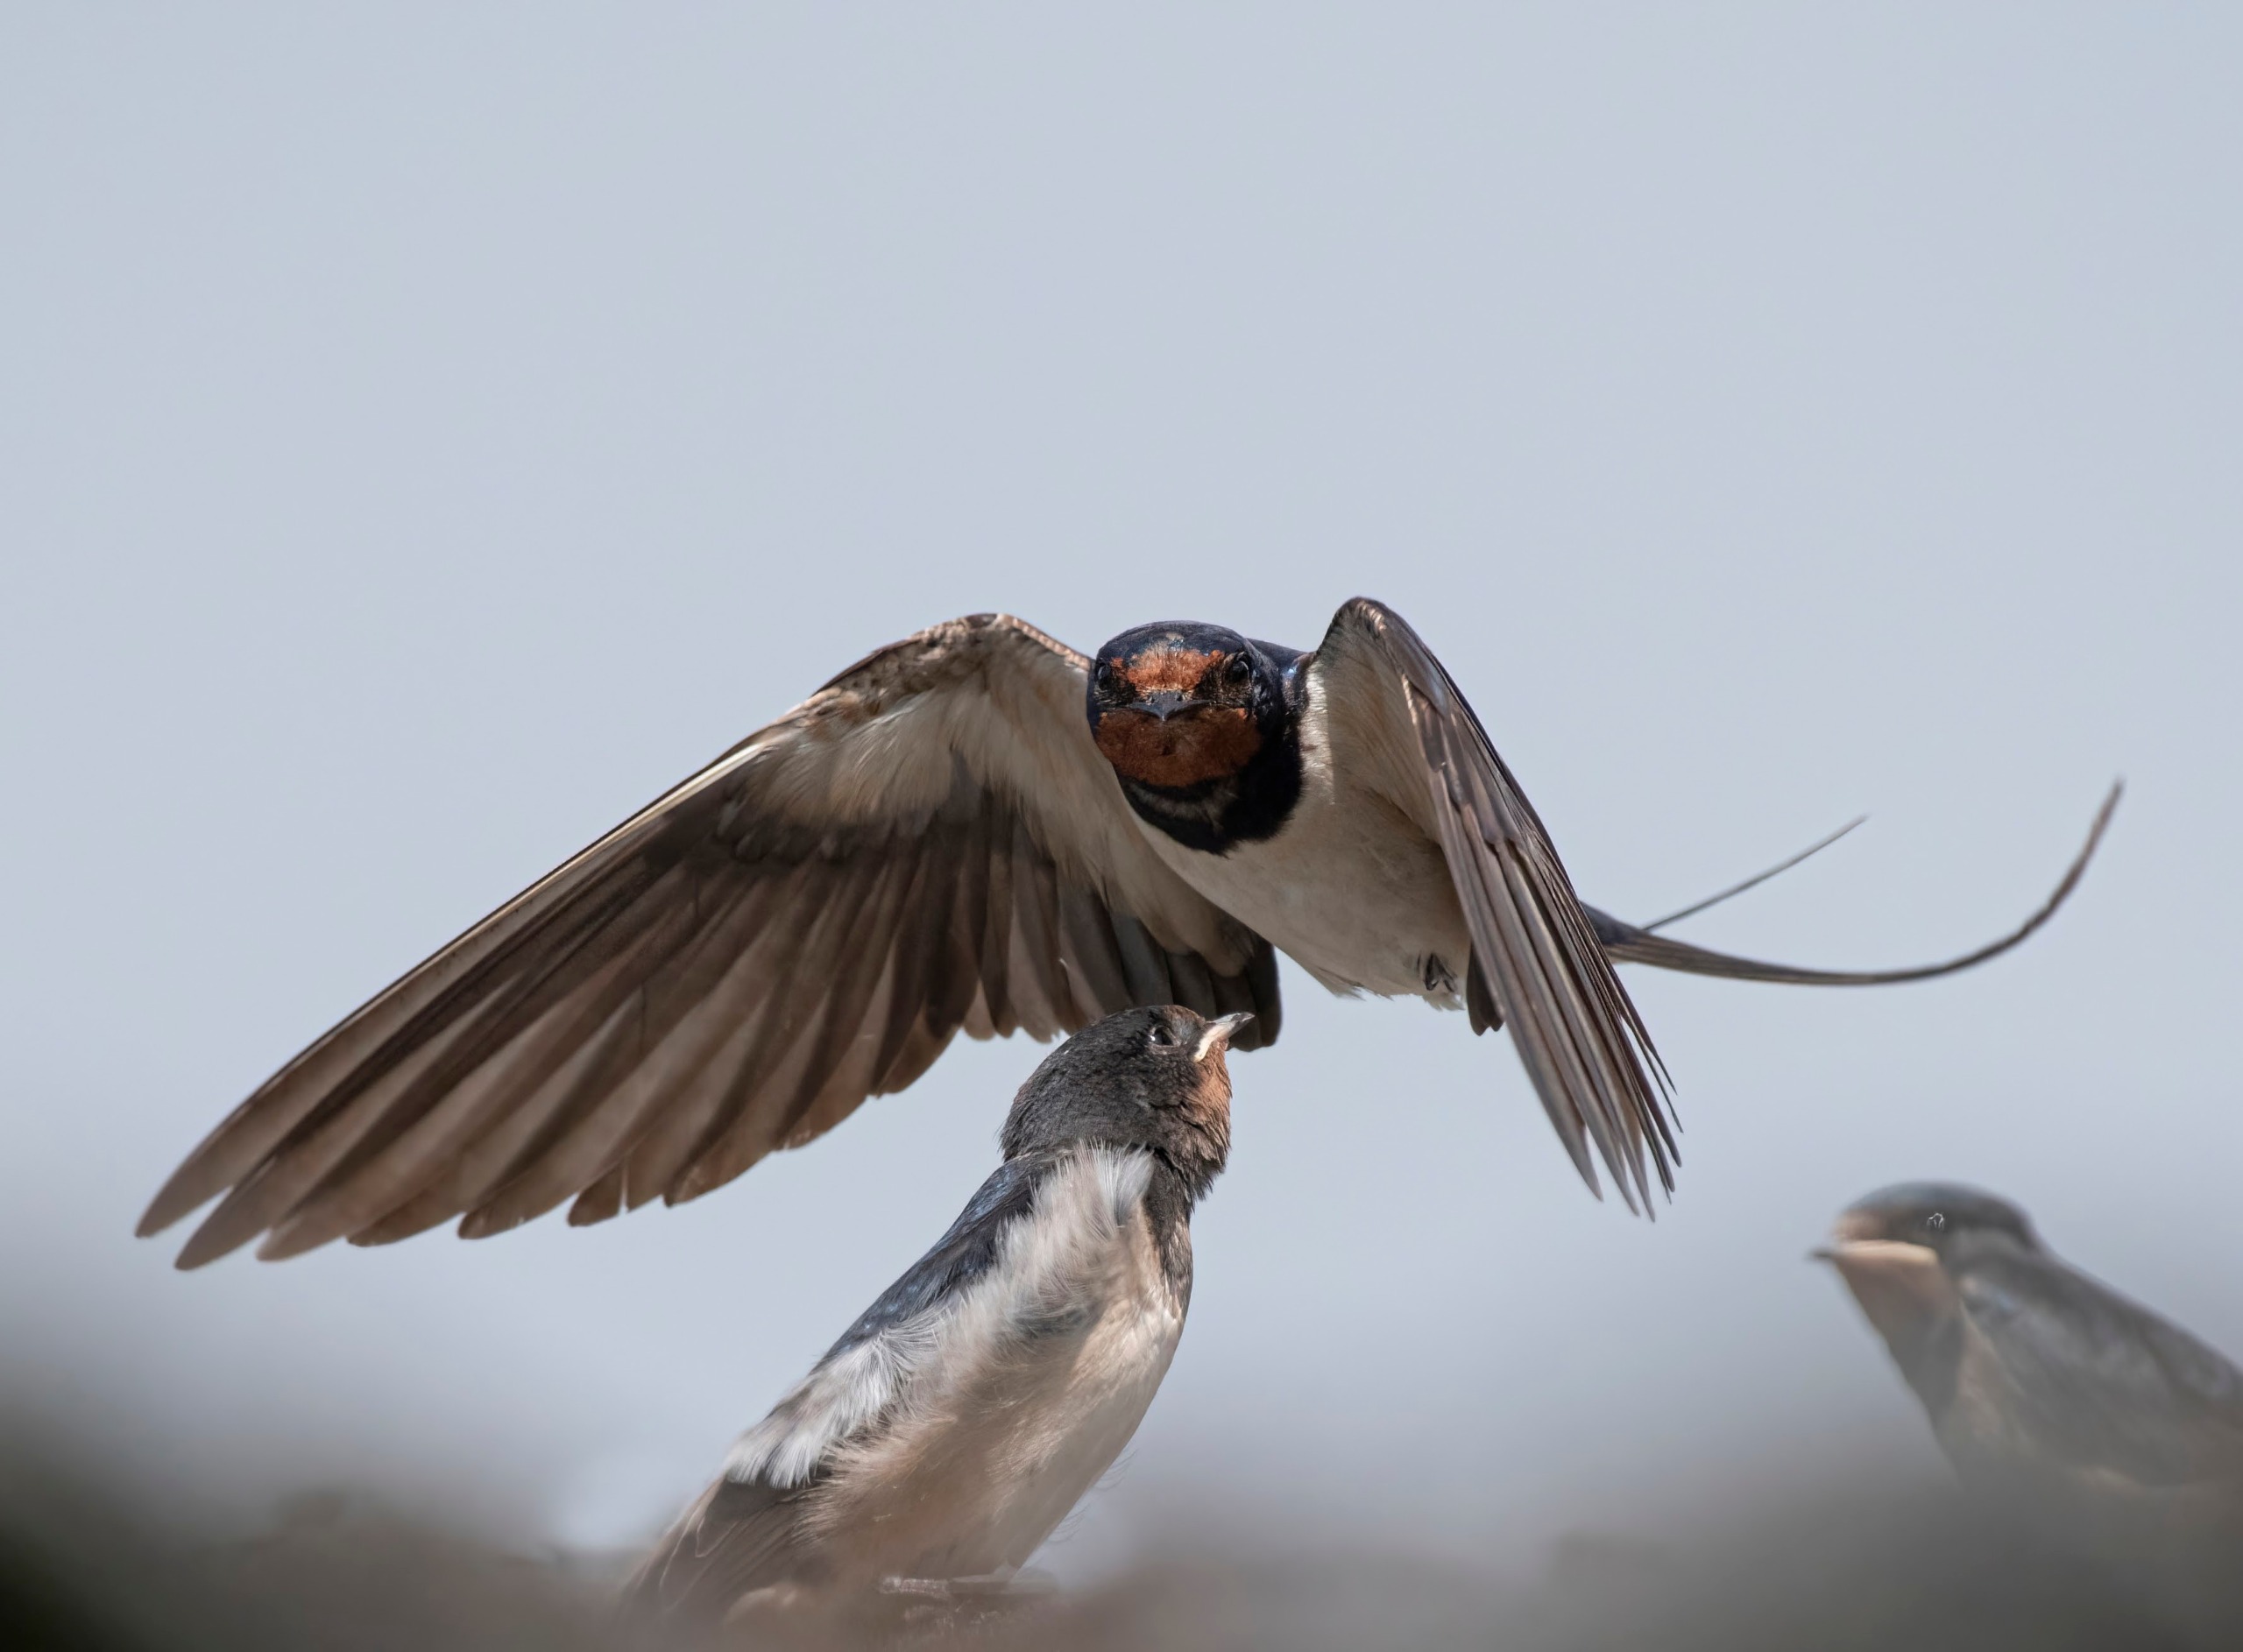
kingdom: Animalia
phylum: Chordata
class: Aves
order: Passeriformes
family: Hirundinidae
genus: Hirundo
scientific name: Hirundo rustica
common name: Landsvale
